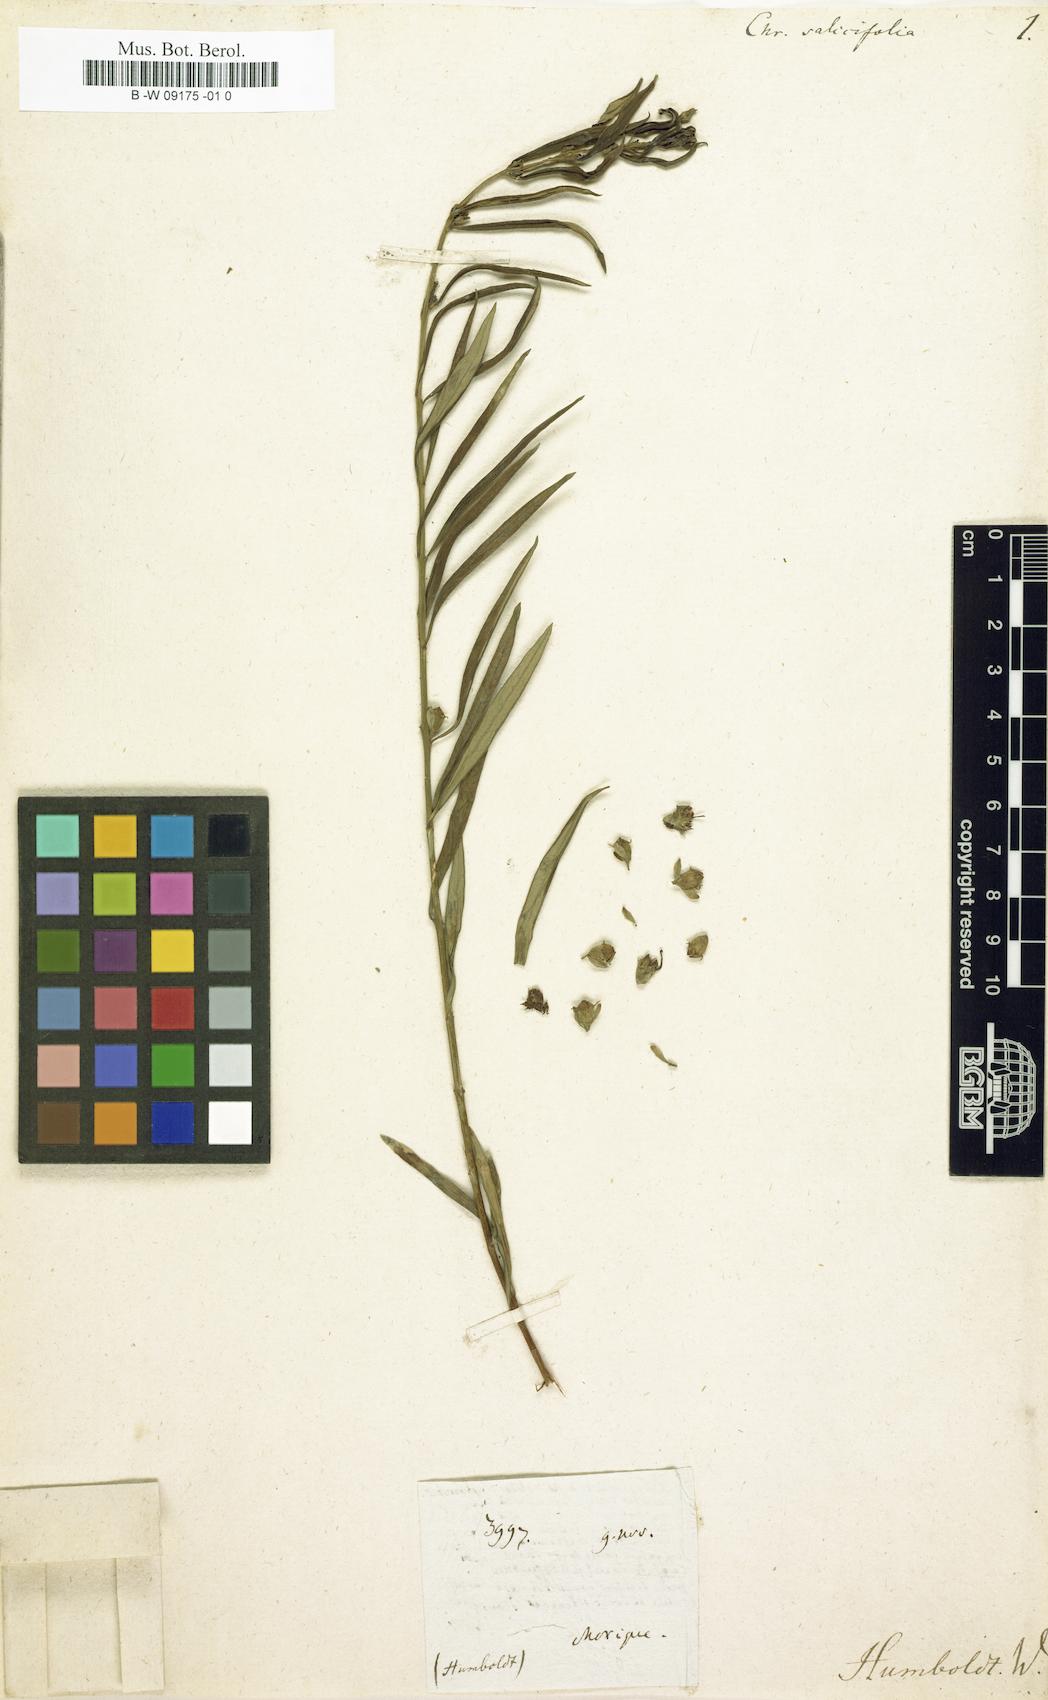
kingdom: Plantae
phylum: Tracheophyta
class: Magnoliopsida
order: Myrtales
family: Lythraceae
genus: Heimia
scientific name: Heimia salicifolia
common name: Willow-leaf heimia
